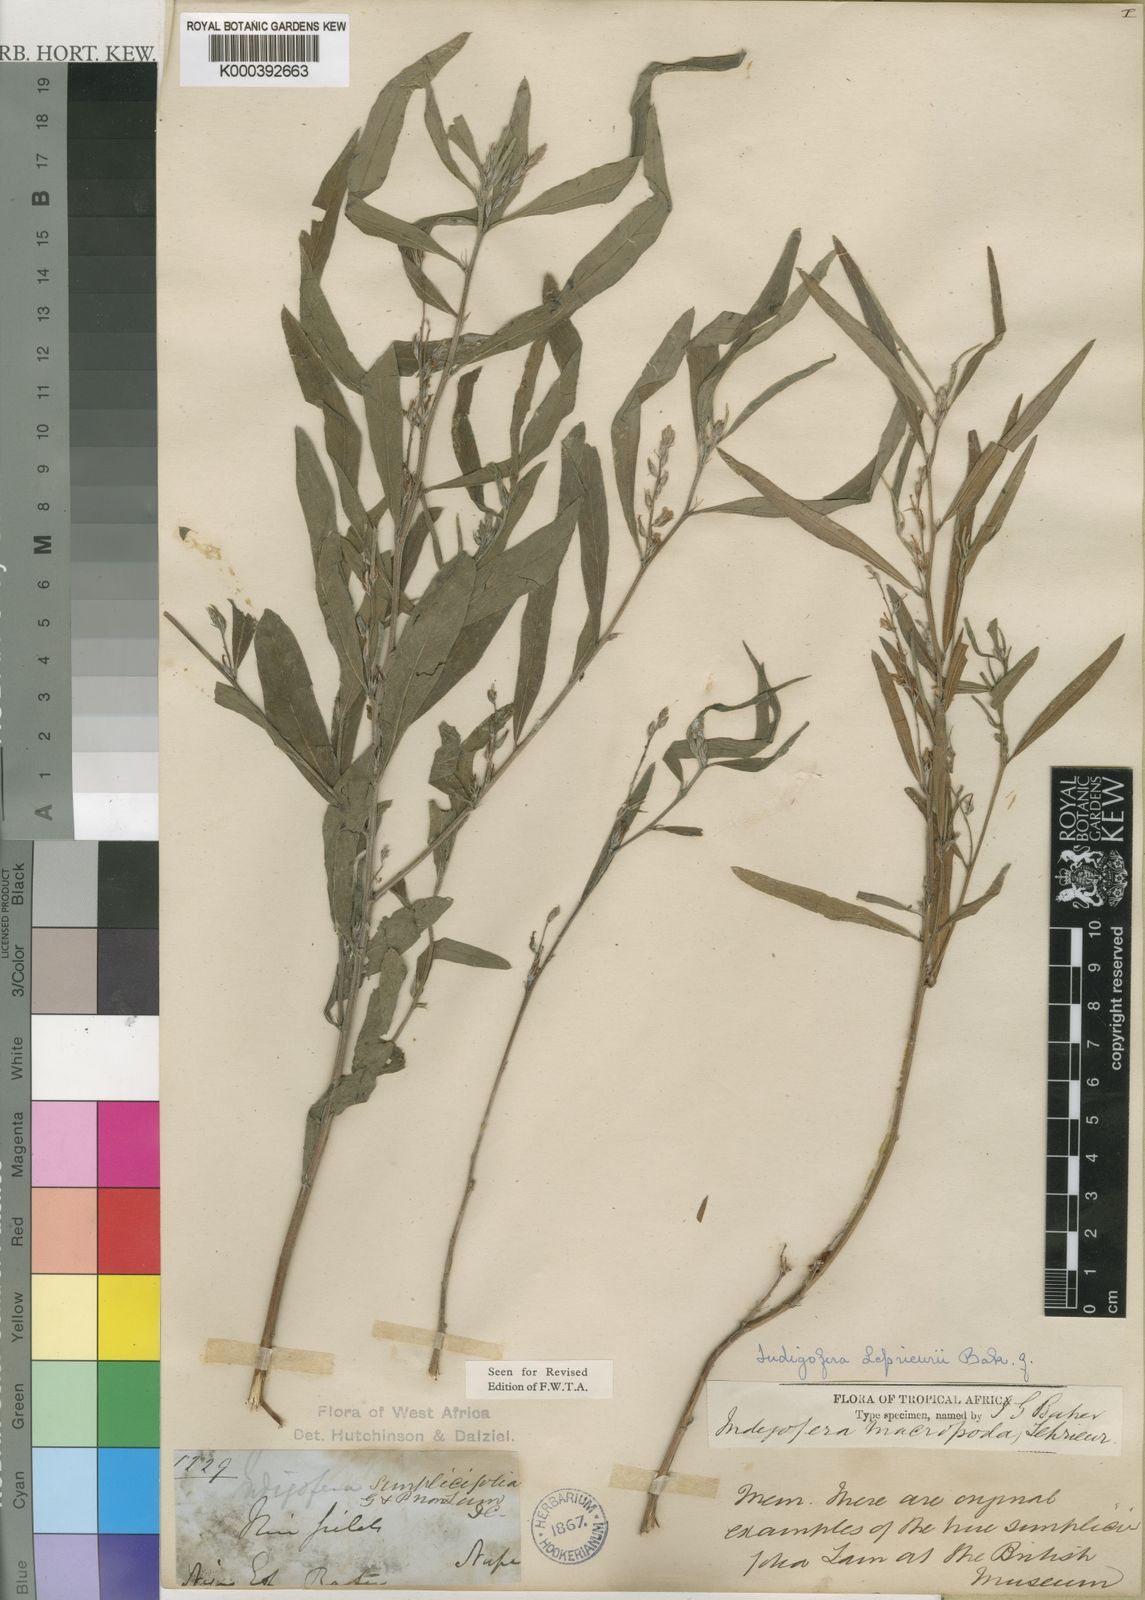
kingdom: Plantae
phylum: Tracheophyta
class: Magnoliopsida
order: Fabales
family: Fabaceae
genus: Indigofera
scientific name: Indigofera leprieurii
